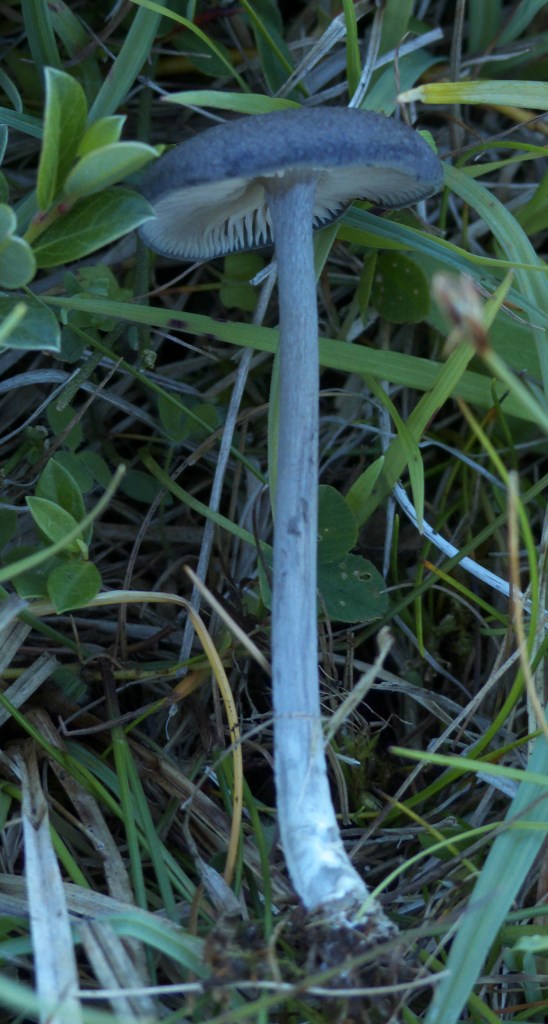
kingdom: Fungi
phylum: Basidiomycota
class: Agaricomycetes
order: Agaricales
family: Entolomataceae
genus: Entoloma
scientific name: Entoloma mougeotii
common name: violetgrå rødblad
